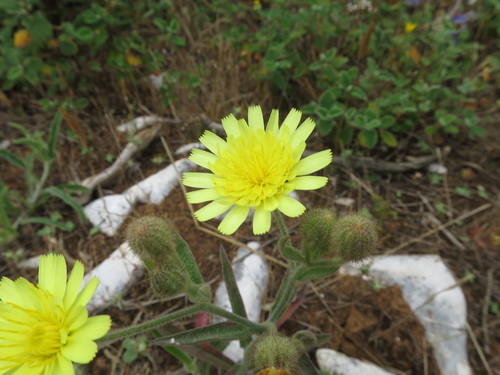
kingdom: Plantae
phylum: Tracheophyta
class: Magnoliopsida
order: Asterales
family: Asteraceae
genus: Andryala
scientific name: Andryala integrifolia
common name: Common andryala
